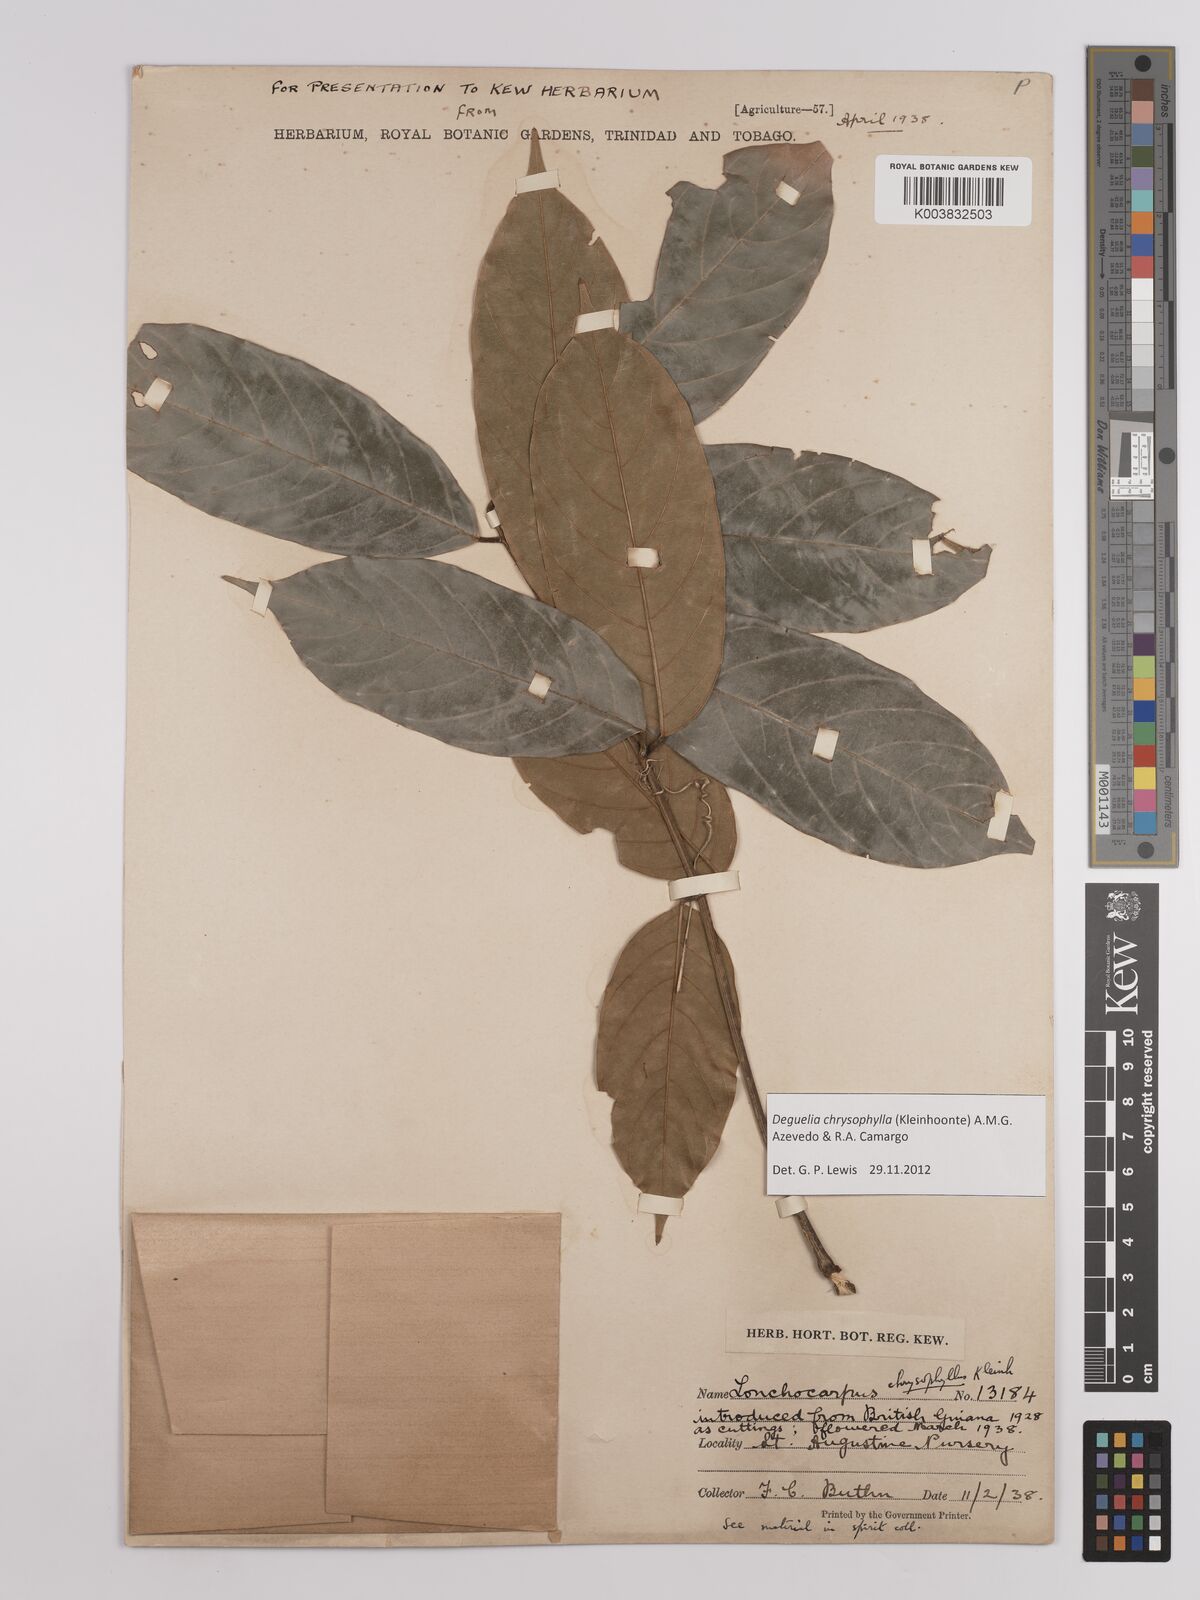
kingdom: Plantae
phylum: Tracheophyta
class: Magnoliopsida
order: Fabales
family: Fabaceae
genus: Deguelia
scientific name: Deguelia chrysophylla
